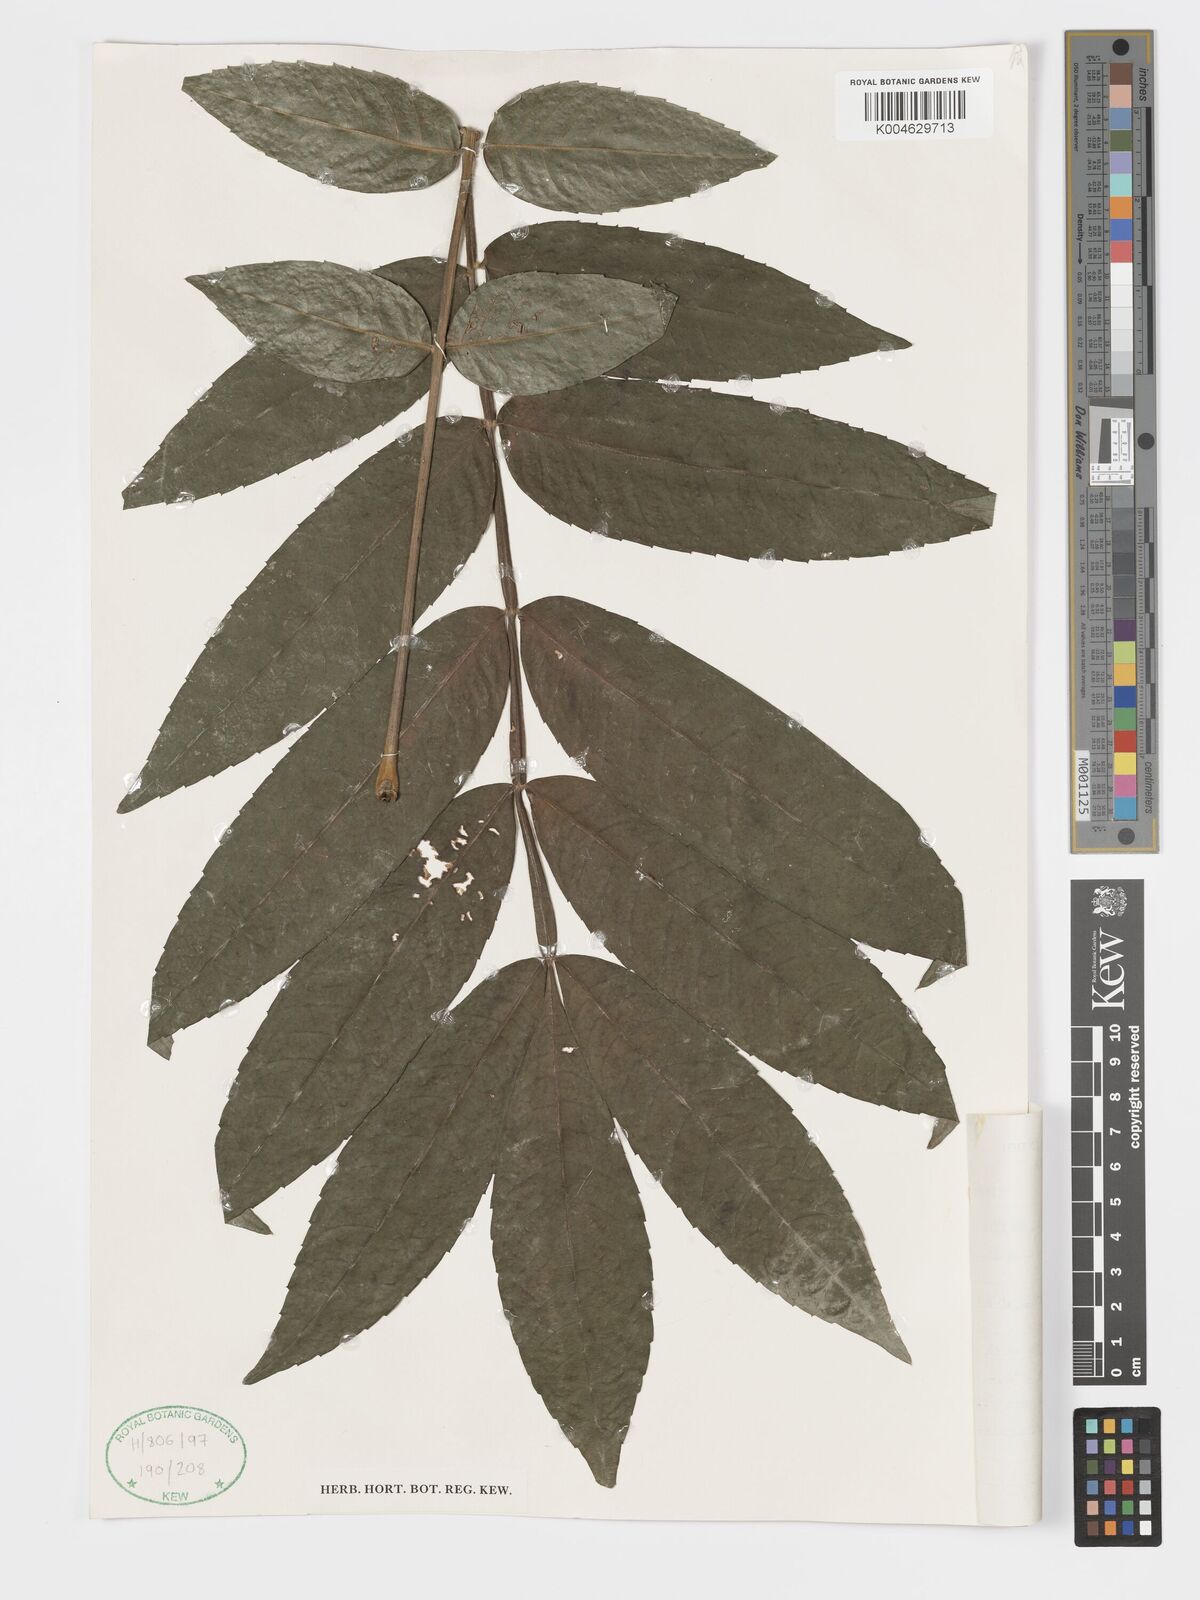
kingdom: Plantae
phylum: Tracheophyta
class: Magnoliopsida
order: Geraniales
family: Melianthaceae
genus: Bersama
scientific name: Bersama abyssinica
